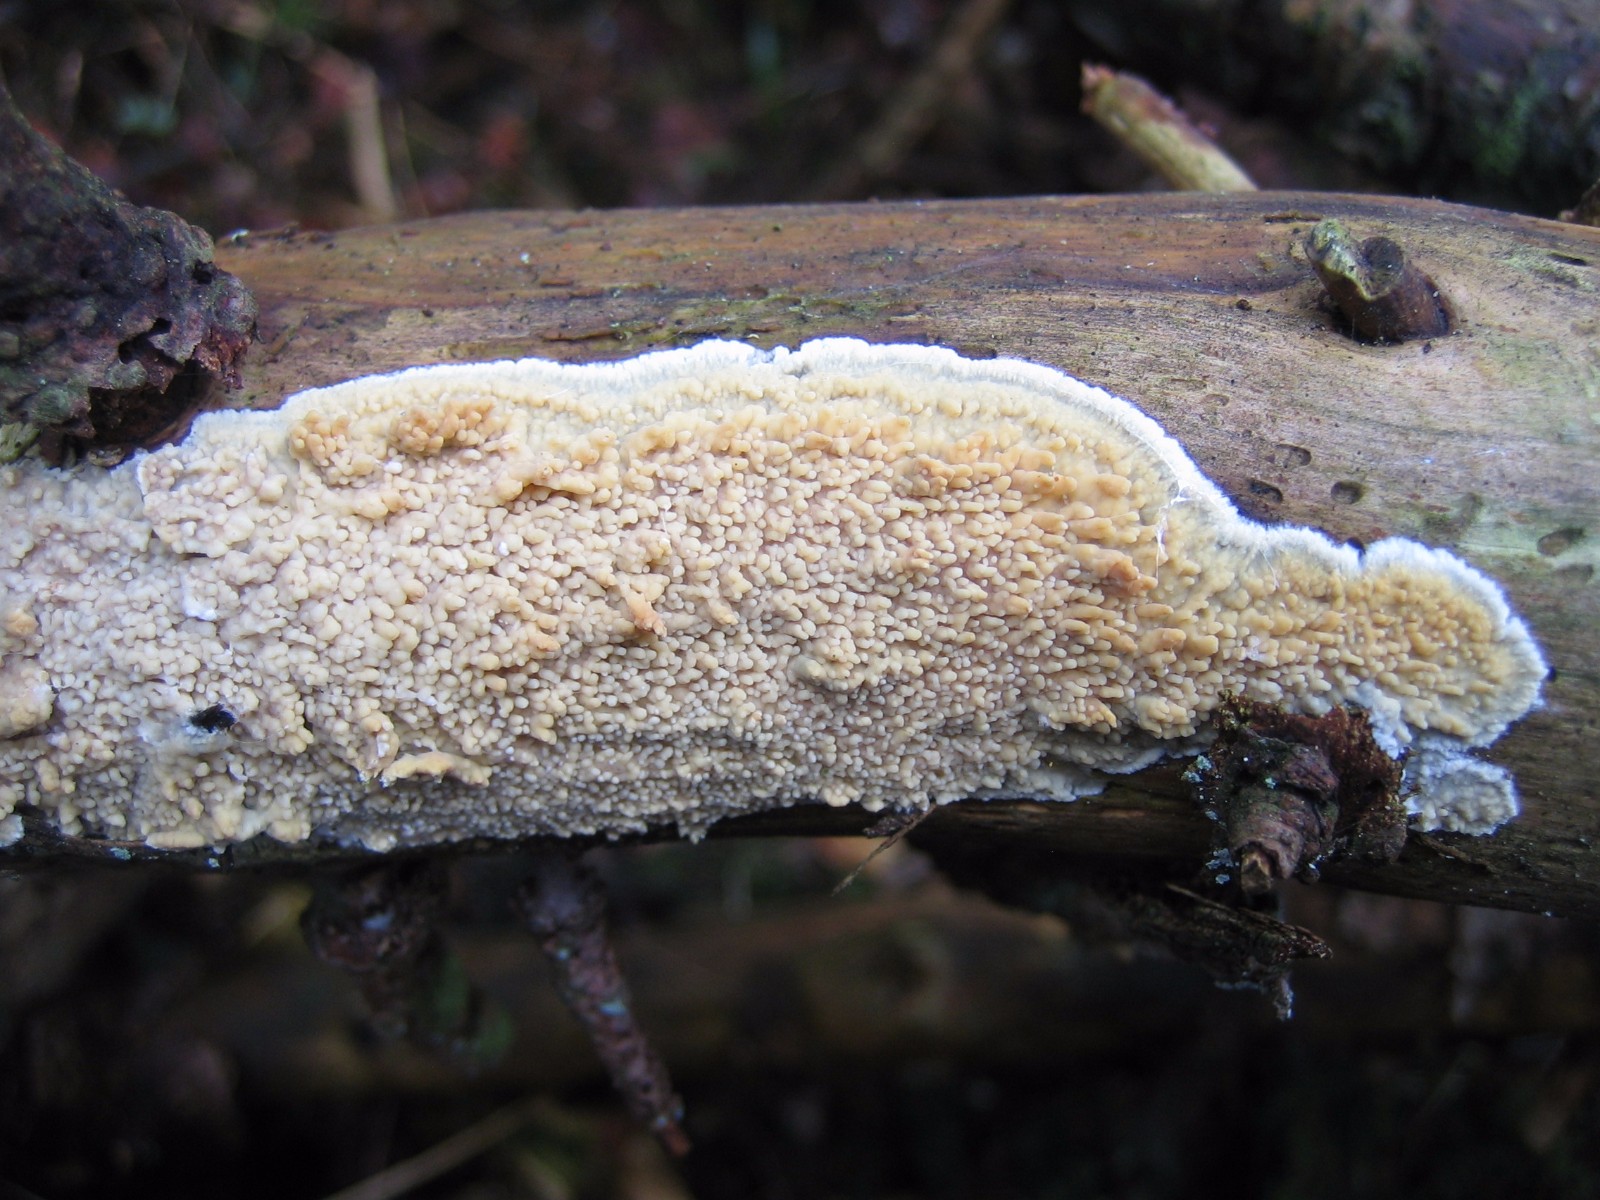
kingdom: Fungi
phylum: Basidiomycota
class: Agaricomycetes
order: Hymenochaetales
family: Schizoporaceae
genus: Xylodon
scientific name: Xylodon radula
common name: grovtandet kalkskind
